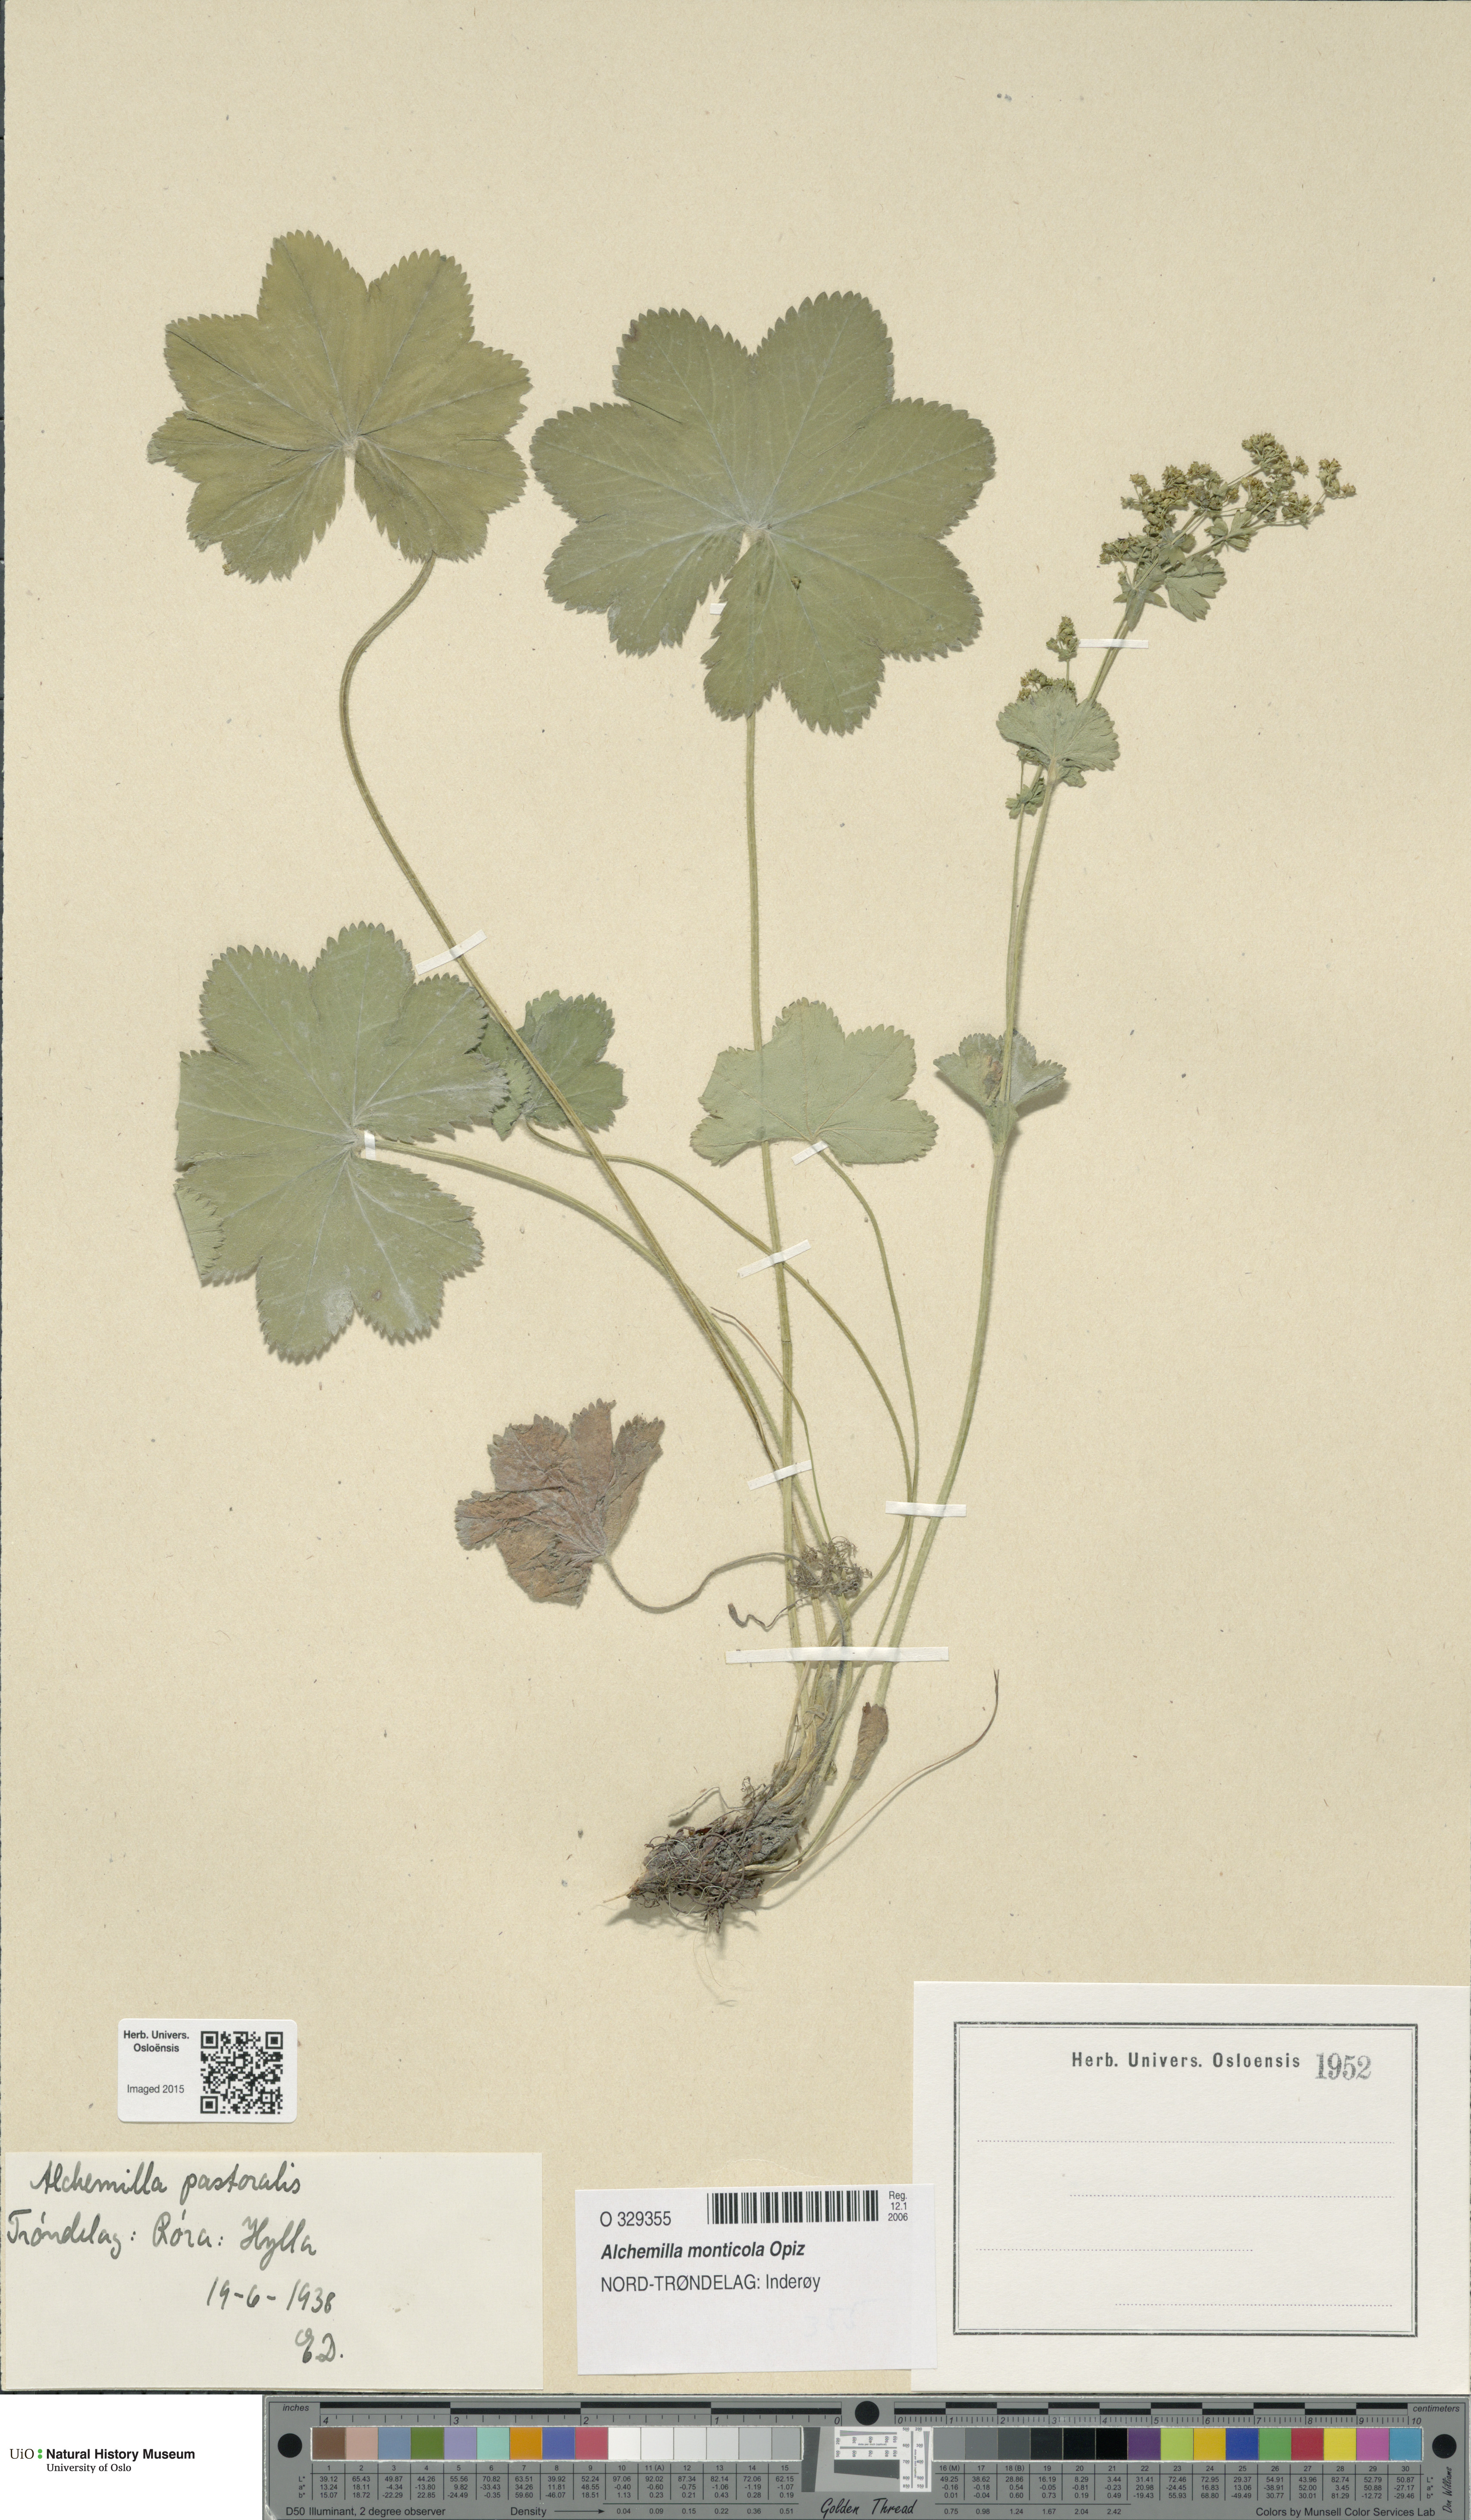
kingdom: Plantae
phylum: Tracheophyta
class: Magnoliopsida
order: Rosales
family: Rosaceae
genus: Alchemilla
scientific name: Alchemilla monticola
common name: Hairy lady's mantle
